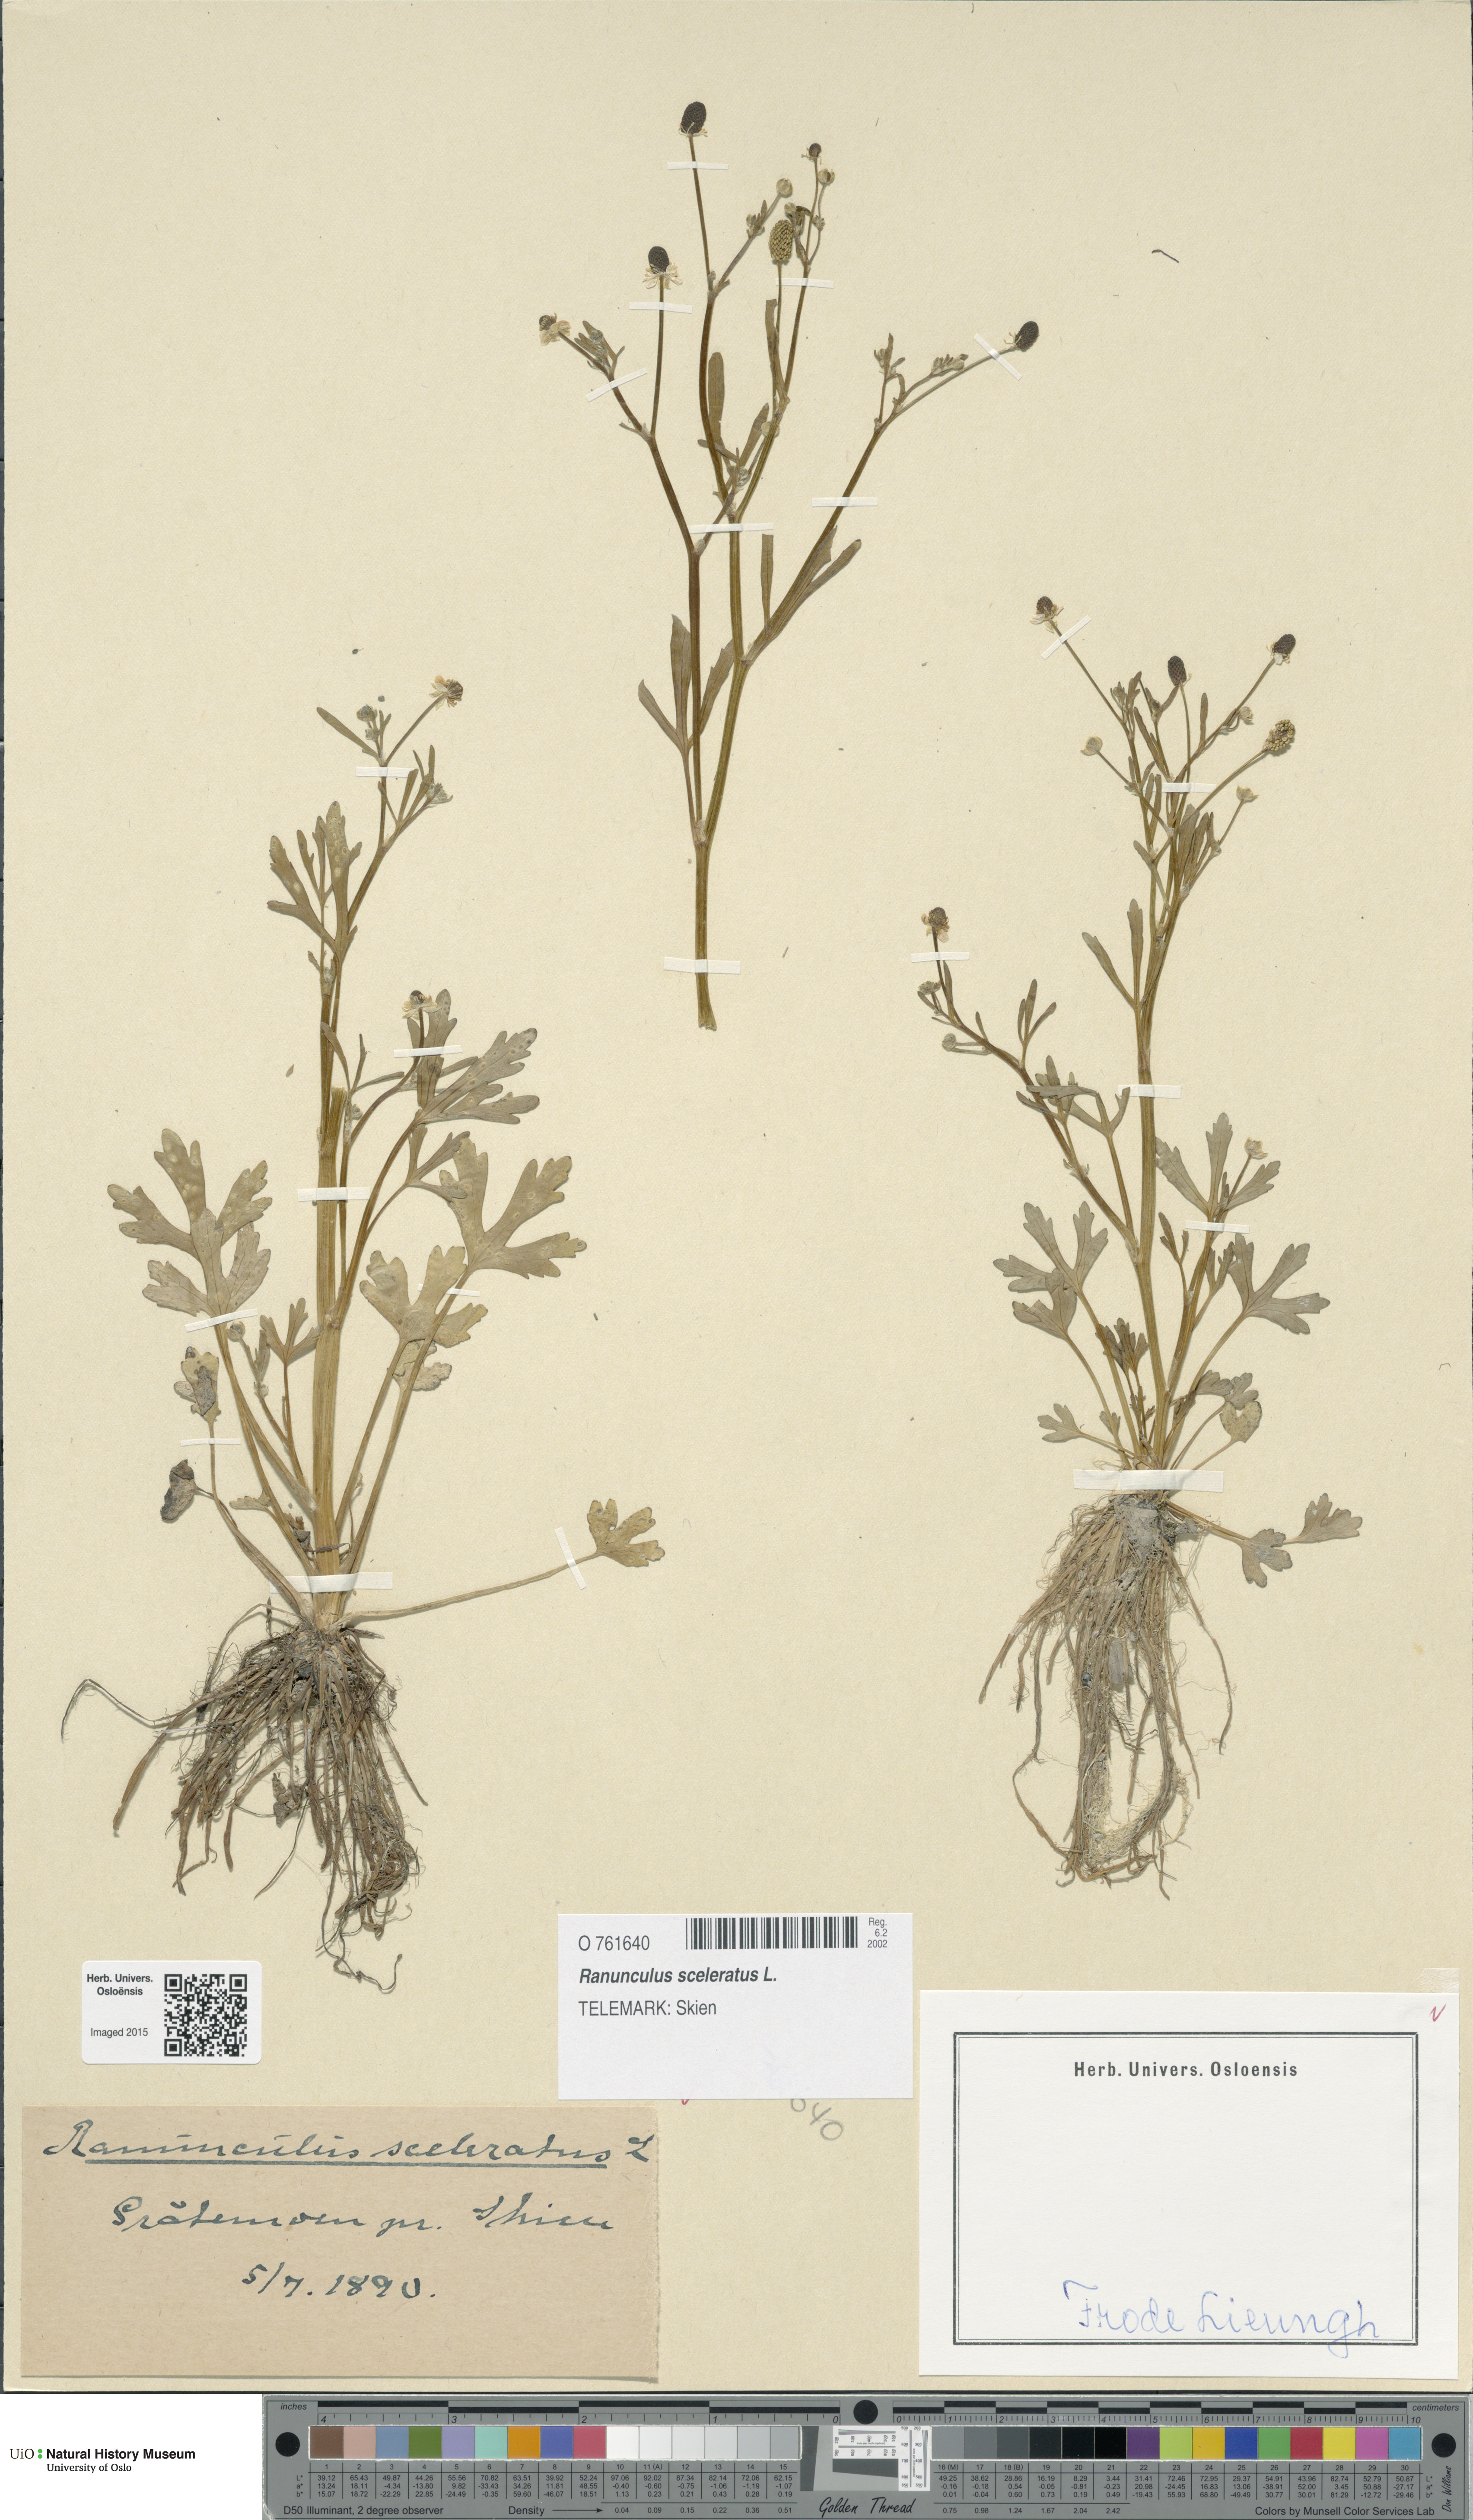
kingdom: Plantae
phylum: Tracheophyta
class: Magnoliopsida
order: Ranunculales
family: Ranunculaceae
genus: Ranunculus
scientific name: Ranunculus sceleratus
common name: Celery-leaved buttercup
